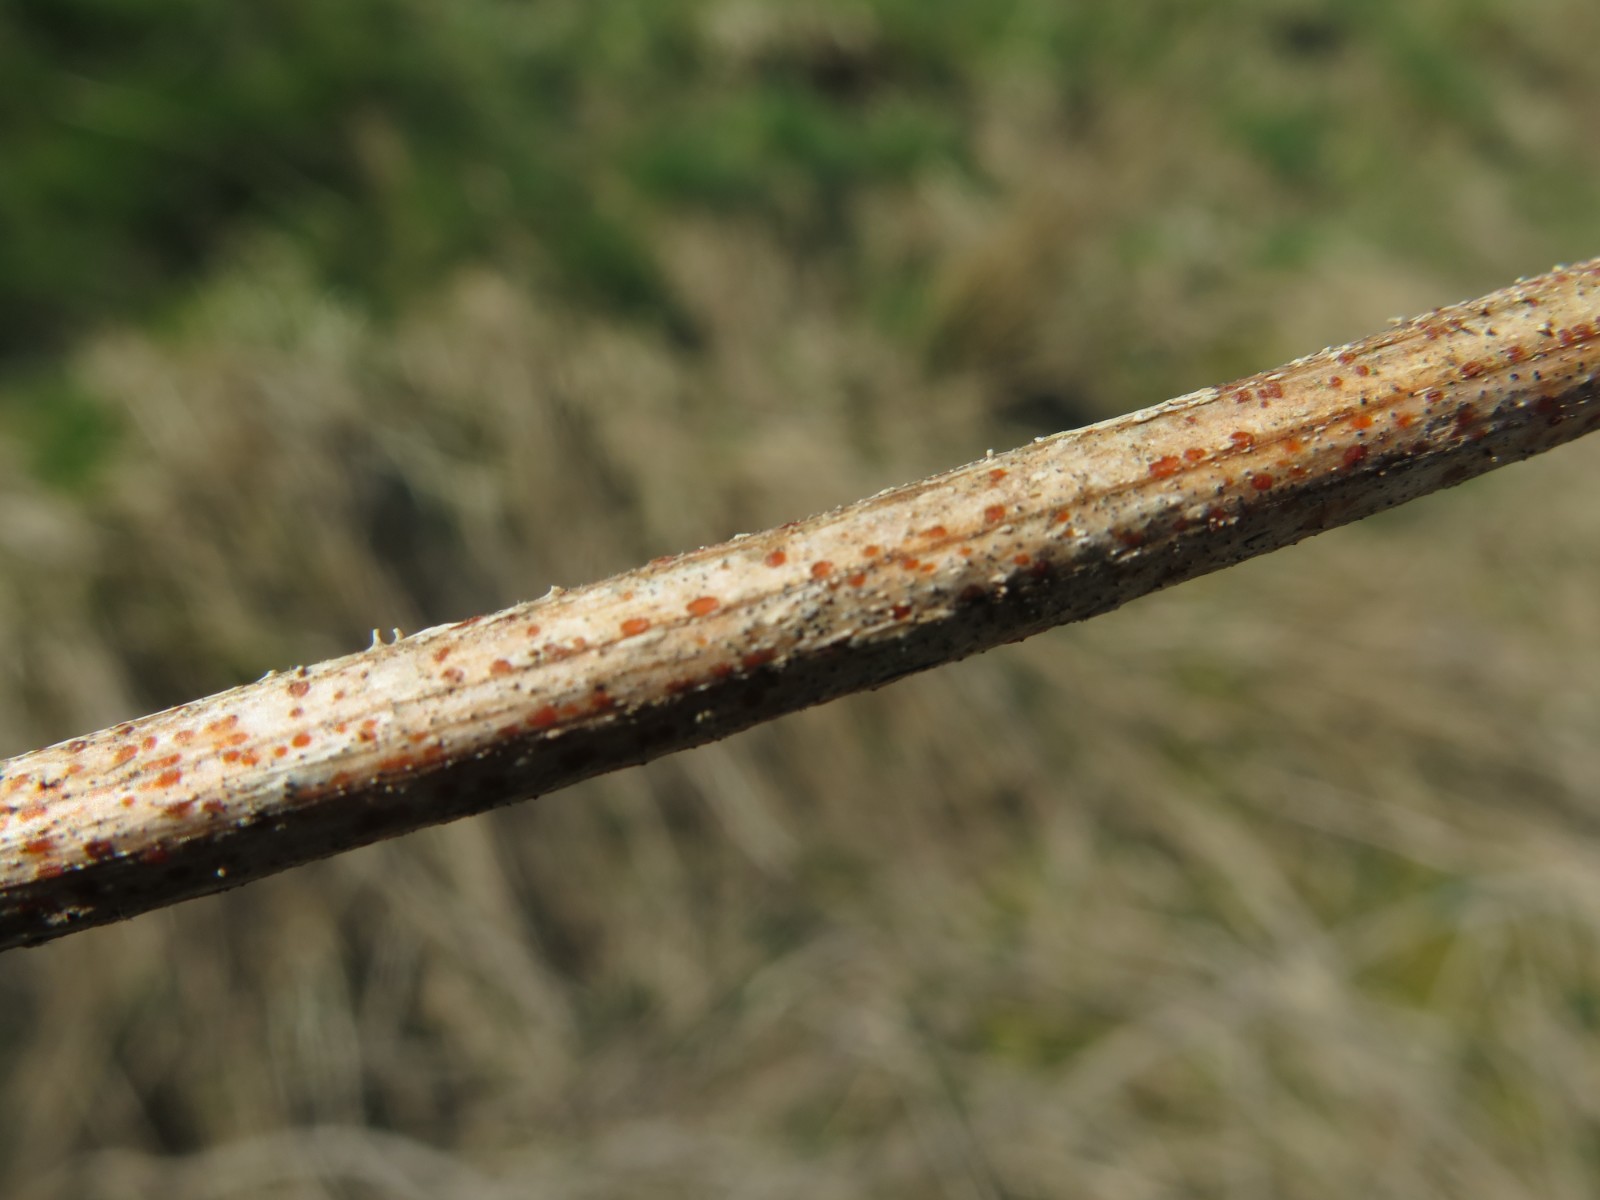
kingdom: Fungi
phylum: Ascomycota
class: Leotiomycetes
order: Helotiales
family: Calloriaceae
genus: Calloria
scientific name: Calloria urticae
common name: nælde-orangeskive
